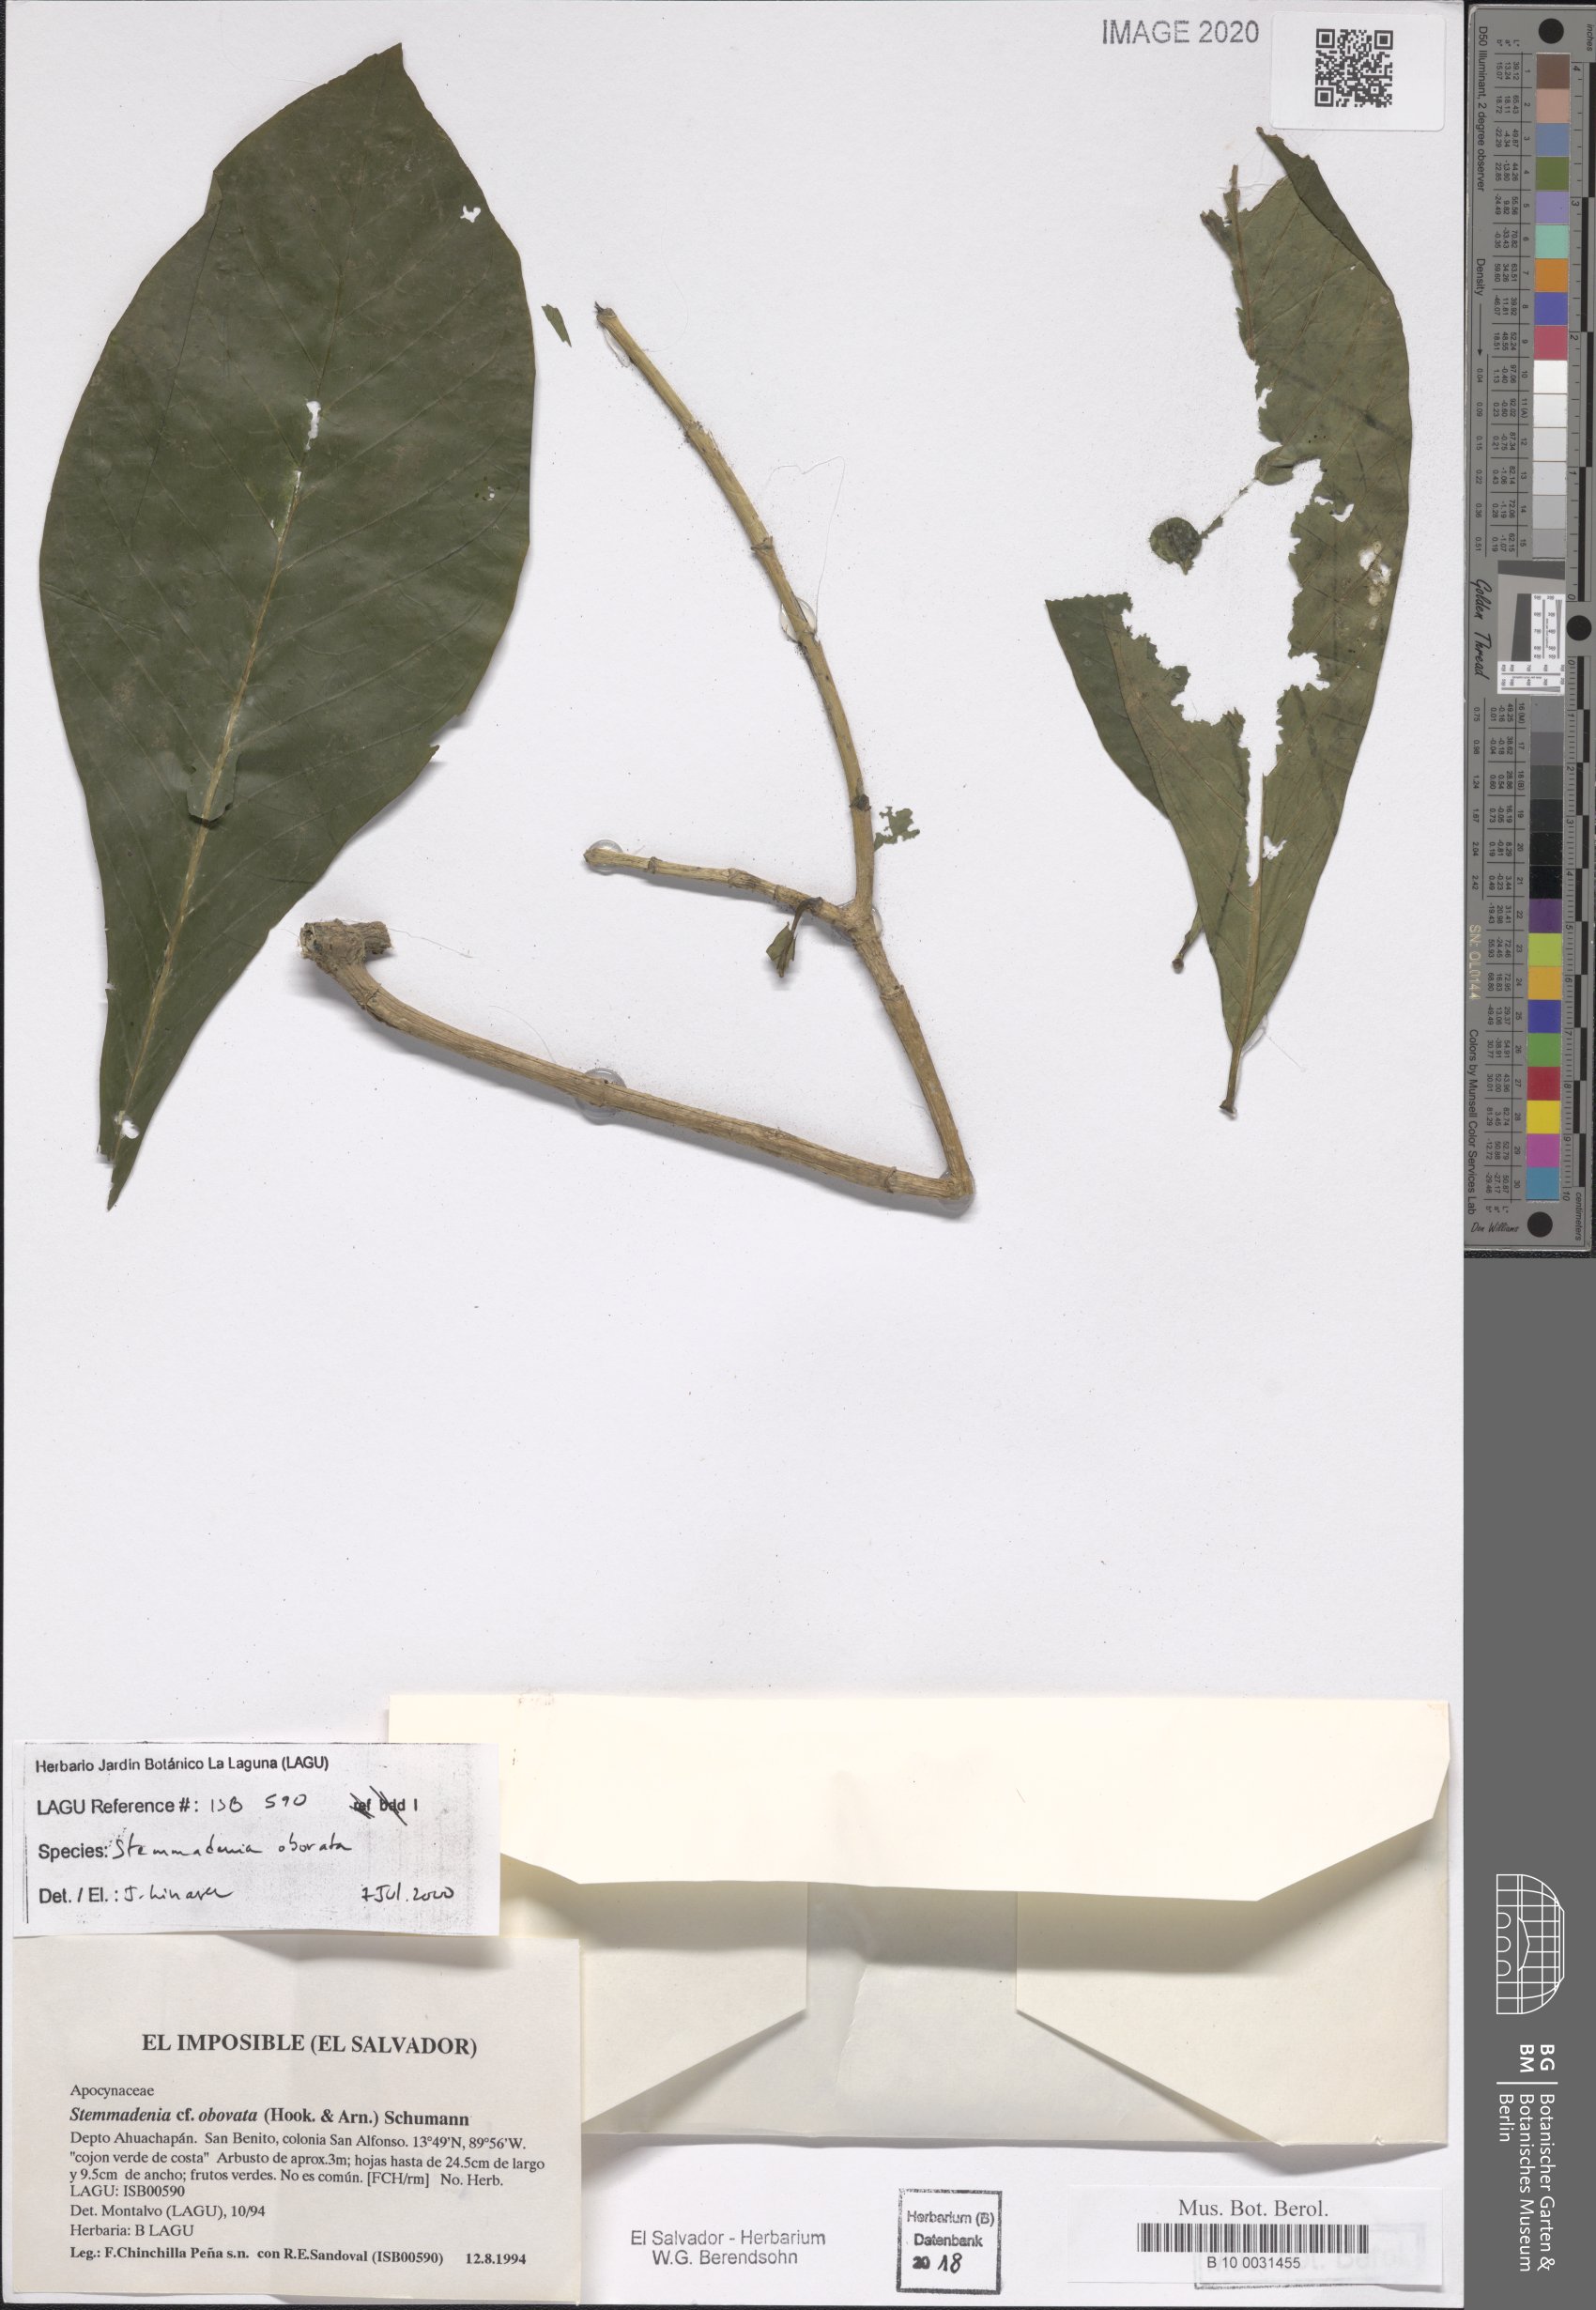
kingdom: Plantae
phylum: Tracheophyta
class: Magnoliopsida
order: Gentianales
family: Apocynaceae
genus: Tabernaemontana
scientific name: Tabernaemontana glabra
